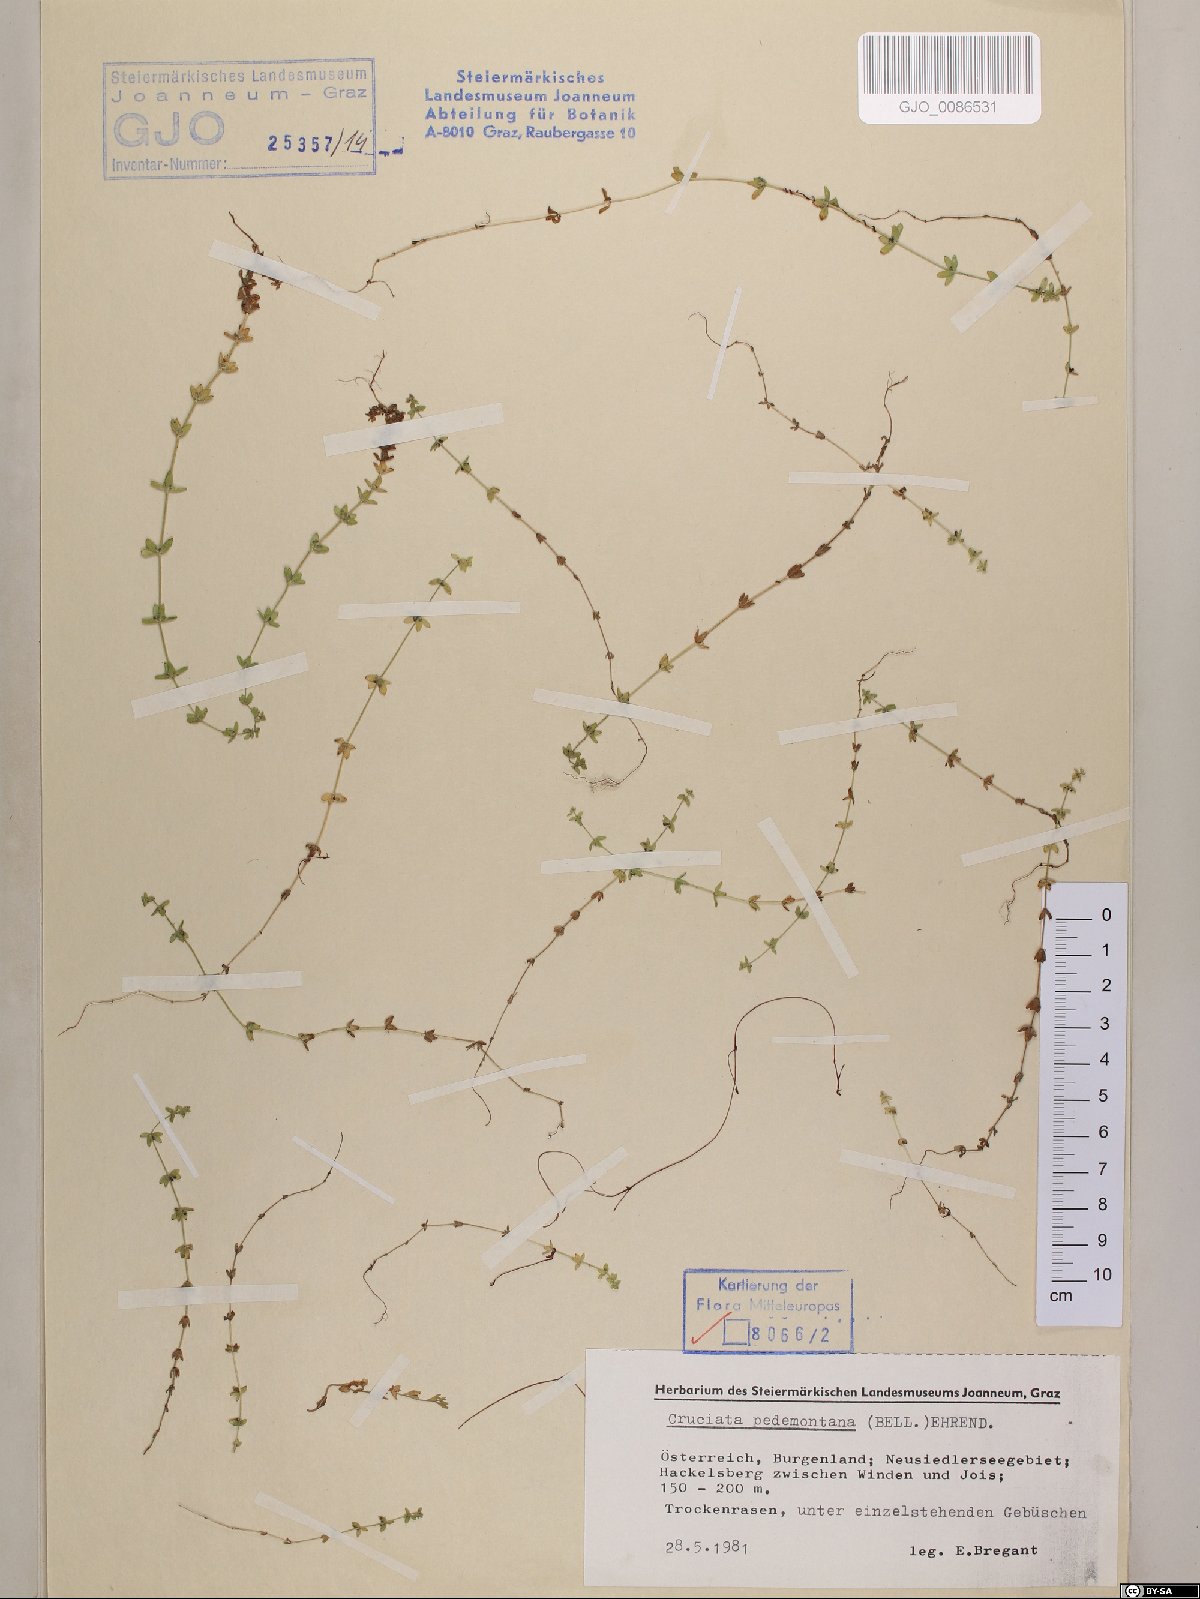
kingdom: Plantae
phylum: Tracheophyta
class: Magnoliopsida
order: Gentianales
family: Rubiaceae
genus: Cruciata
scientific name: Cruciata pedemontana
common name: Piedmont bedstraw
